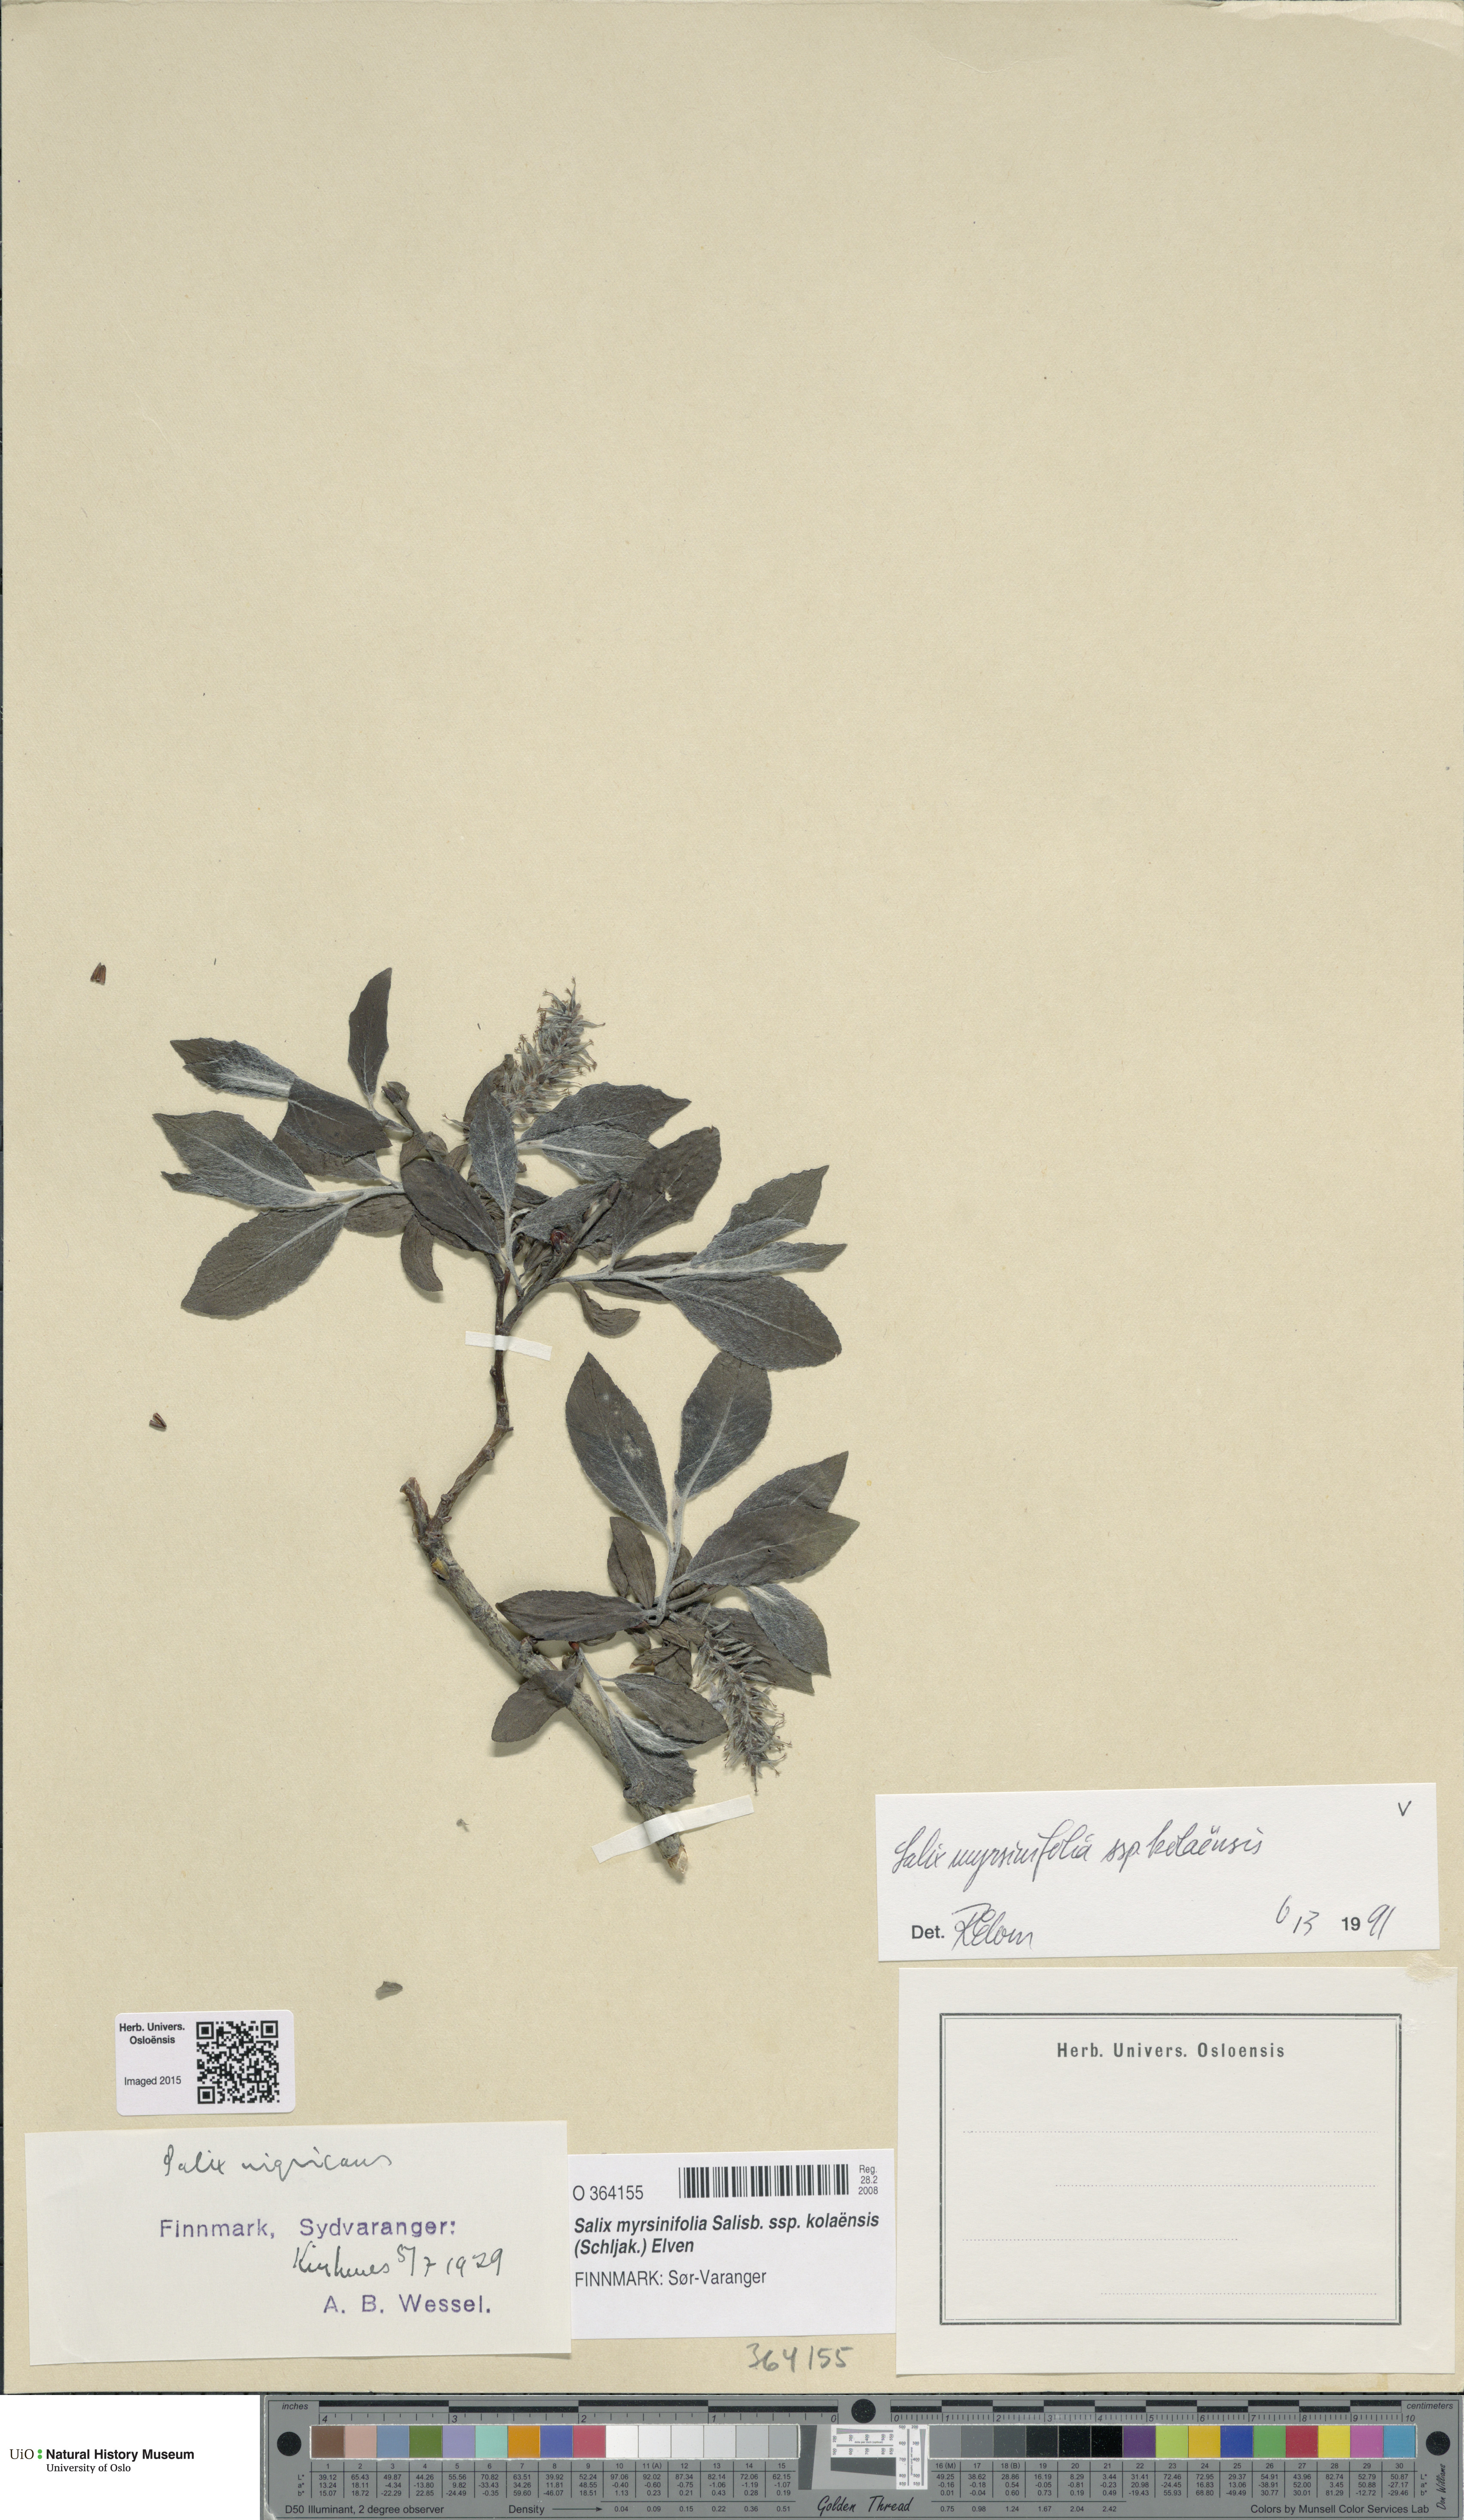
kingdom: Plantae
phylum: Tracheophyta
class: Magnoliopsida
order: Malpighiales
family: Salicaceae
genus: Salix
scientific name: Salix myrsinifolia
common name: Dark-leaved willow
